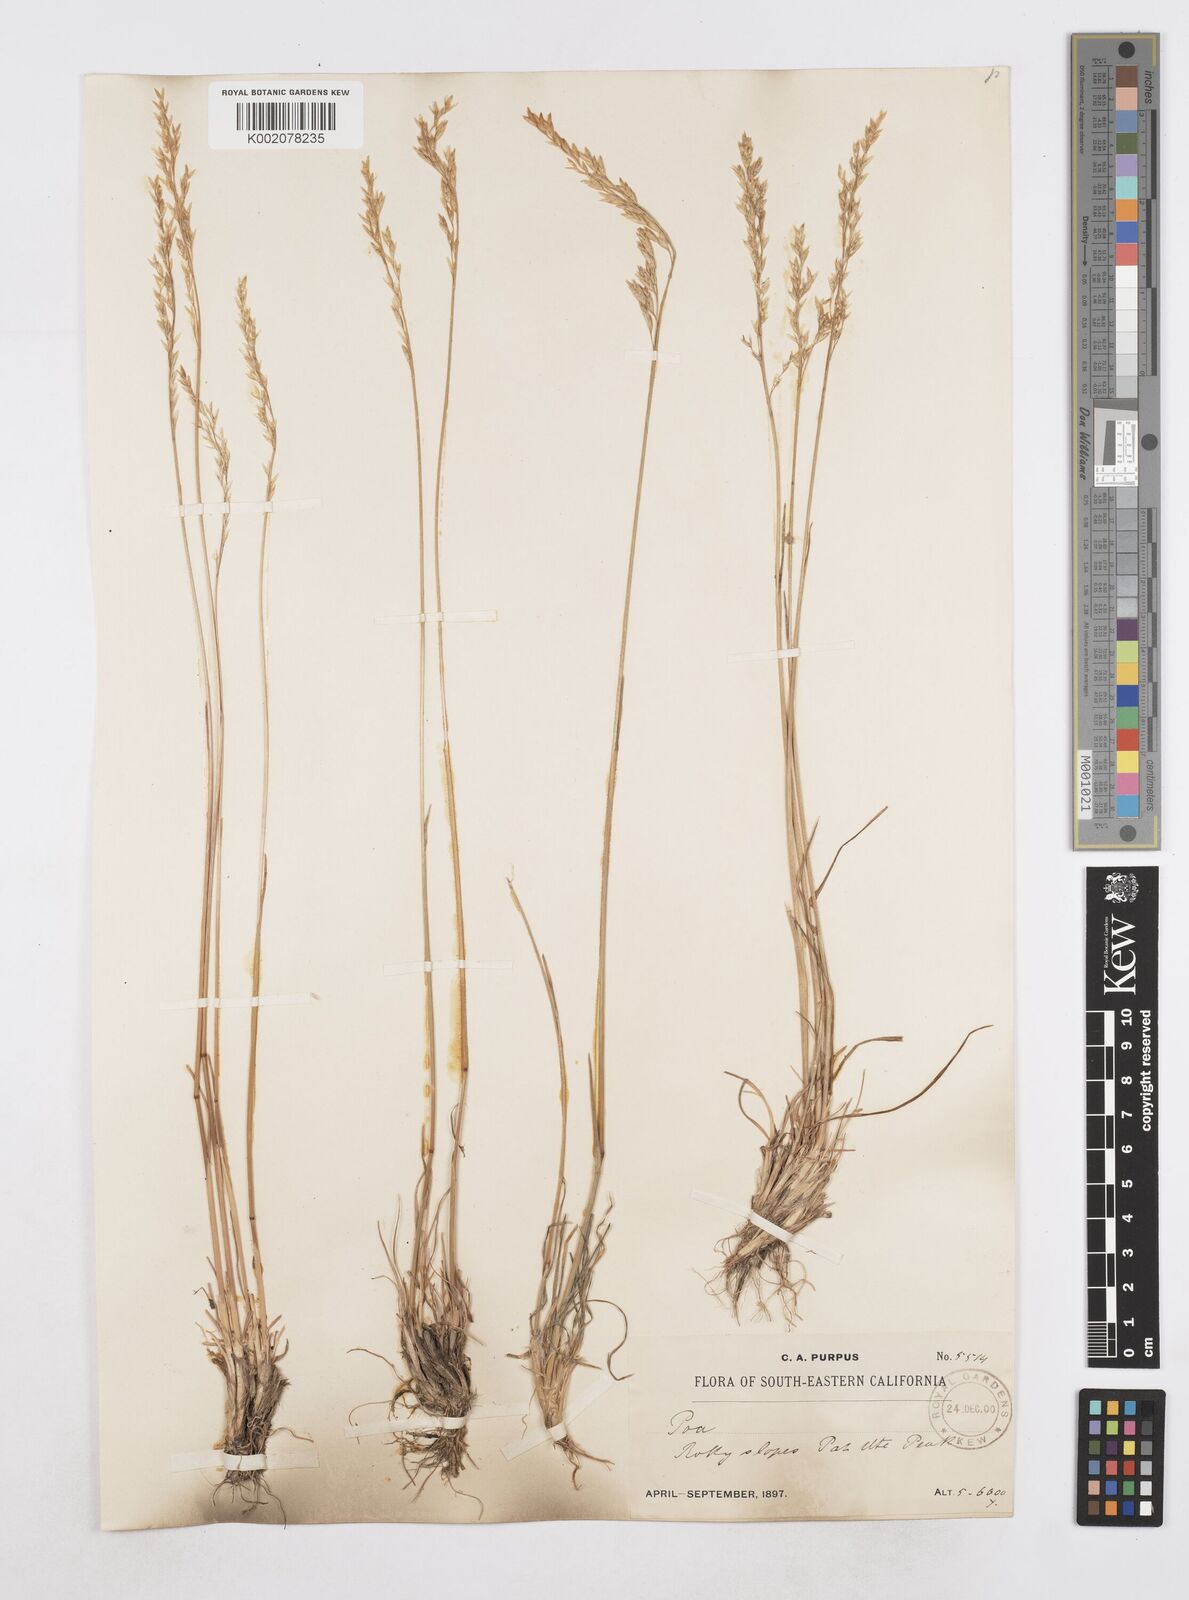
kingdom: Plantae
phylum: Tracheophyta
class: Liliopsida
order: Poales
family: Poaceae
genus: Poa
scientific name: Poa
